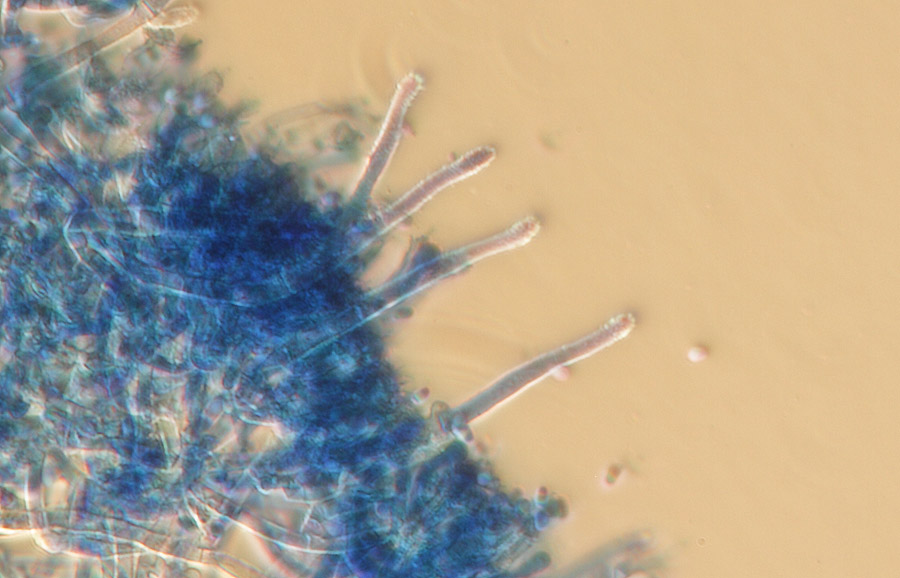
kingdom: Fungi
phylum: Basidiomycota
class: Agaricomycetes
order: Atheliales
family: Atheliaceae
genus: Amphinema
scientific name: Amphinema byssoides
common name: almindelig rodhinde
